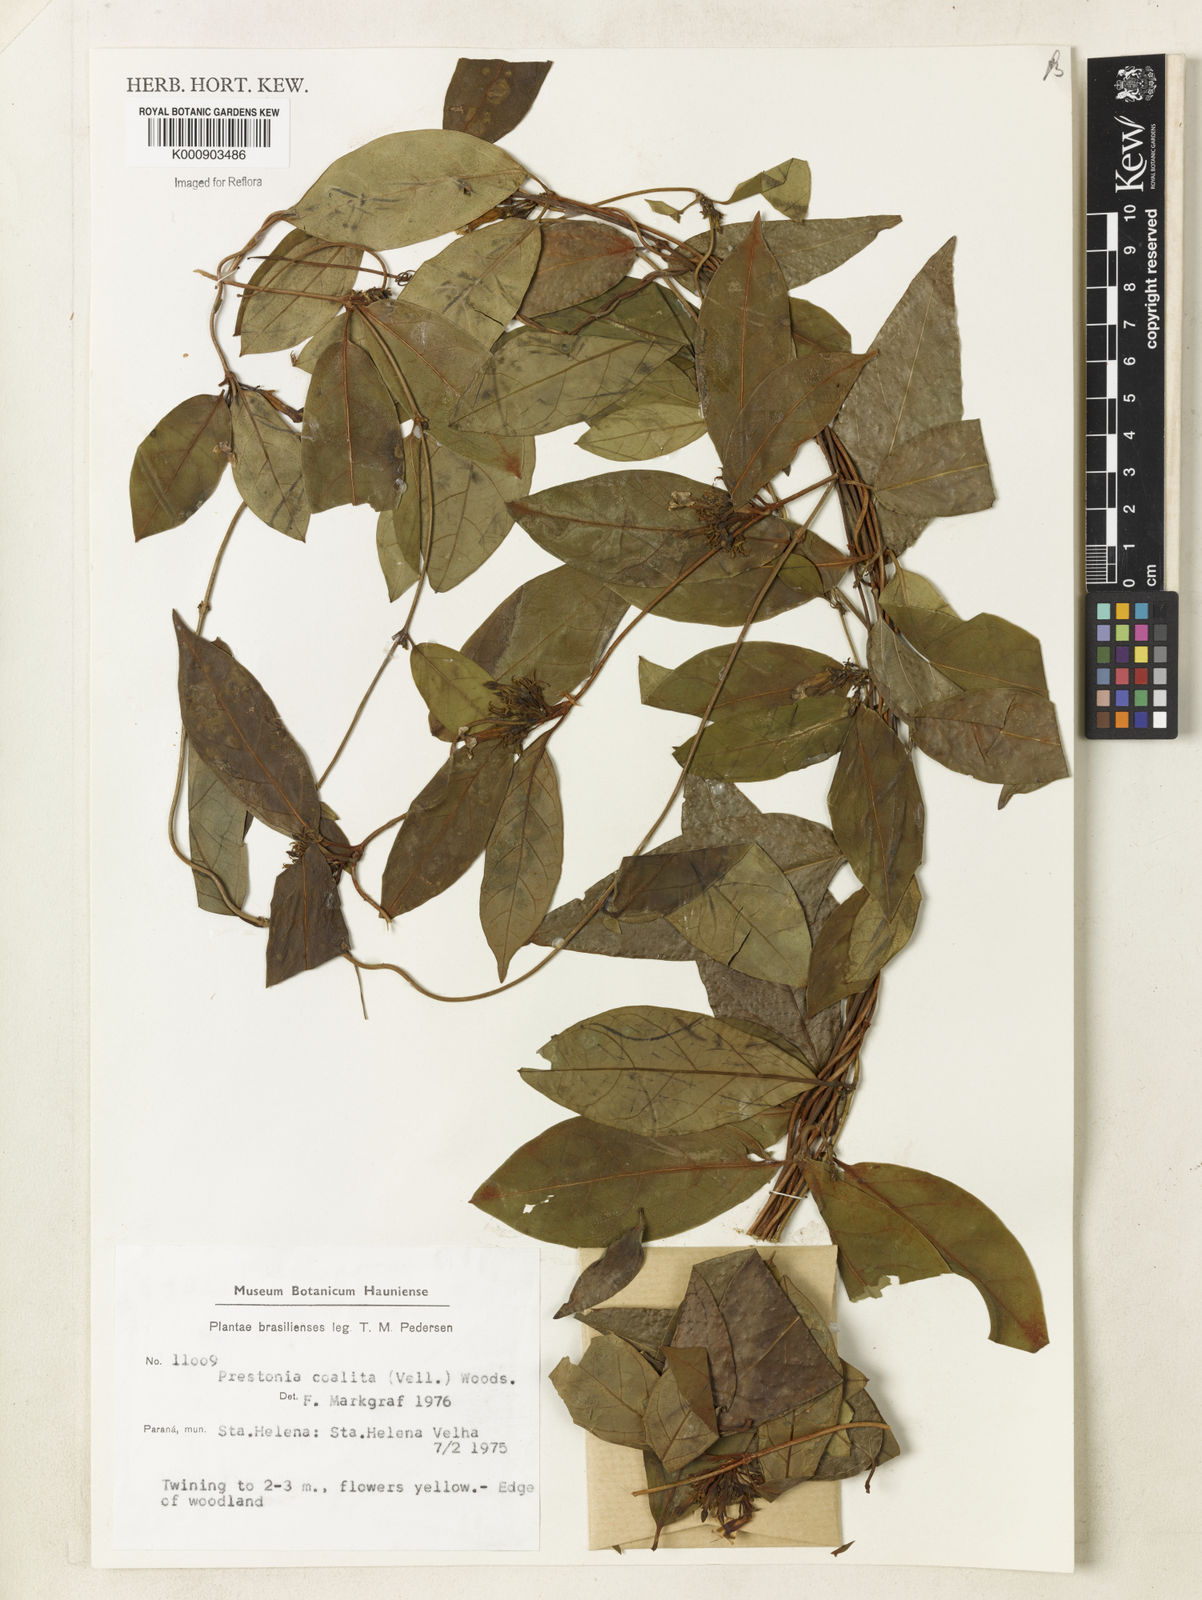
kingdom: Plantae
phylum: Tracheophyta
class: Magnoliopsida
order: Gentianales
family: Apocynaceae
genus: Prestonia
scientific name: Prestonia coalita
